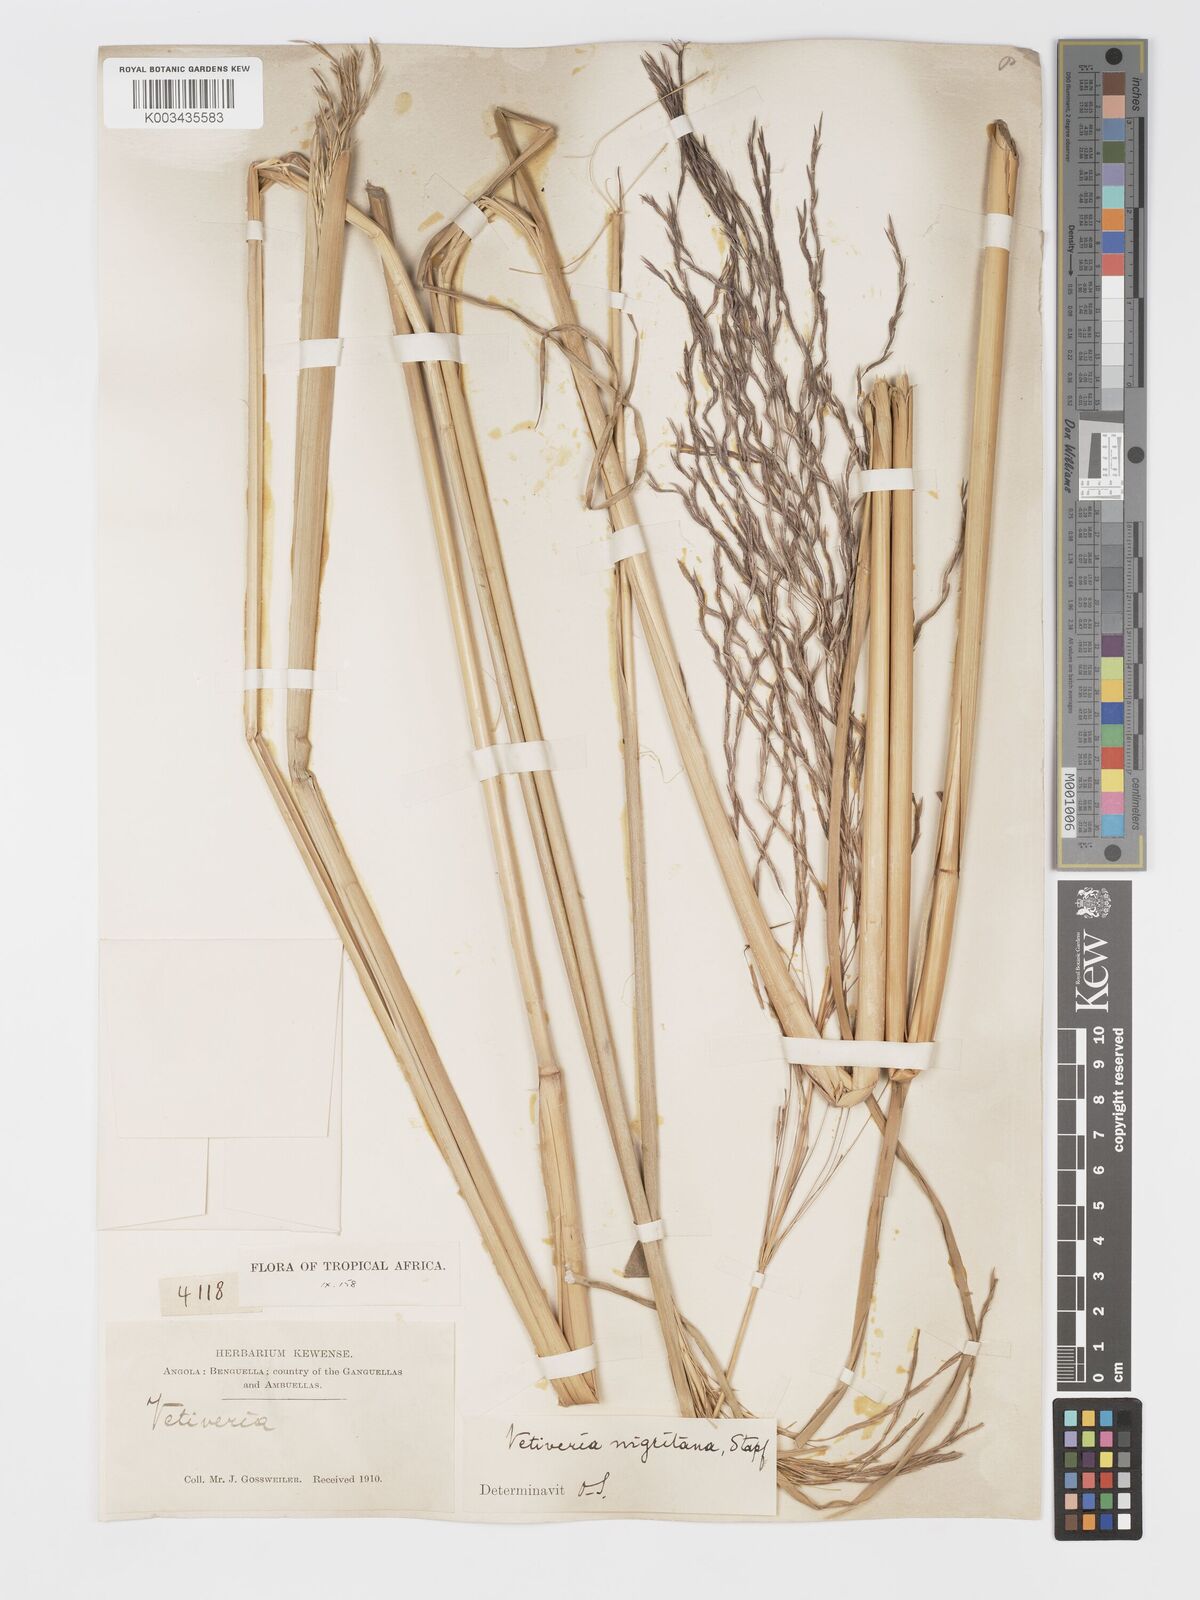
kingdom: Plantae
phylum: Tracheophyta
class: Liliopsida
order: Poales
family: Poaceae
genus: Chrysopogon
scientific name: Chrysopogon nigritanus
